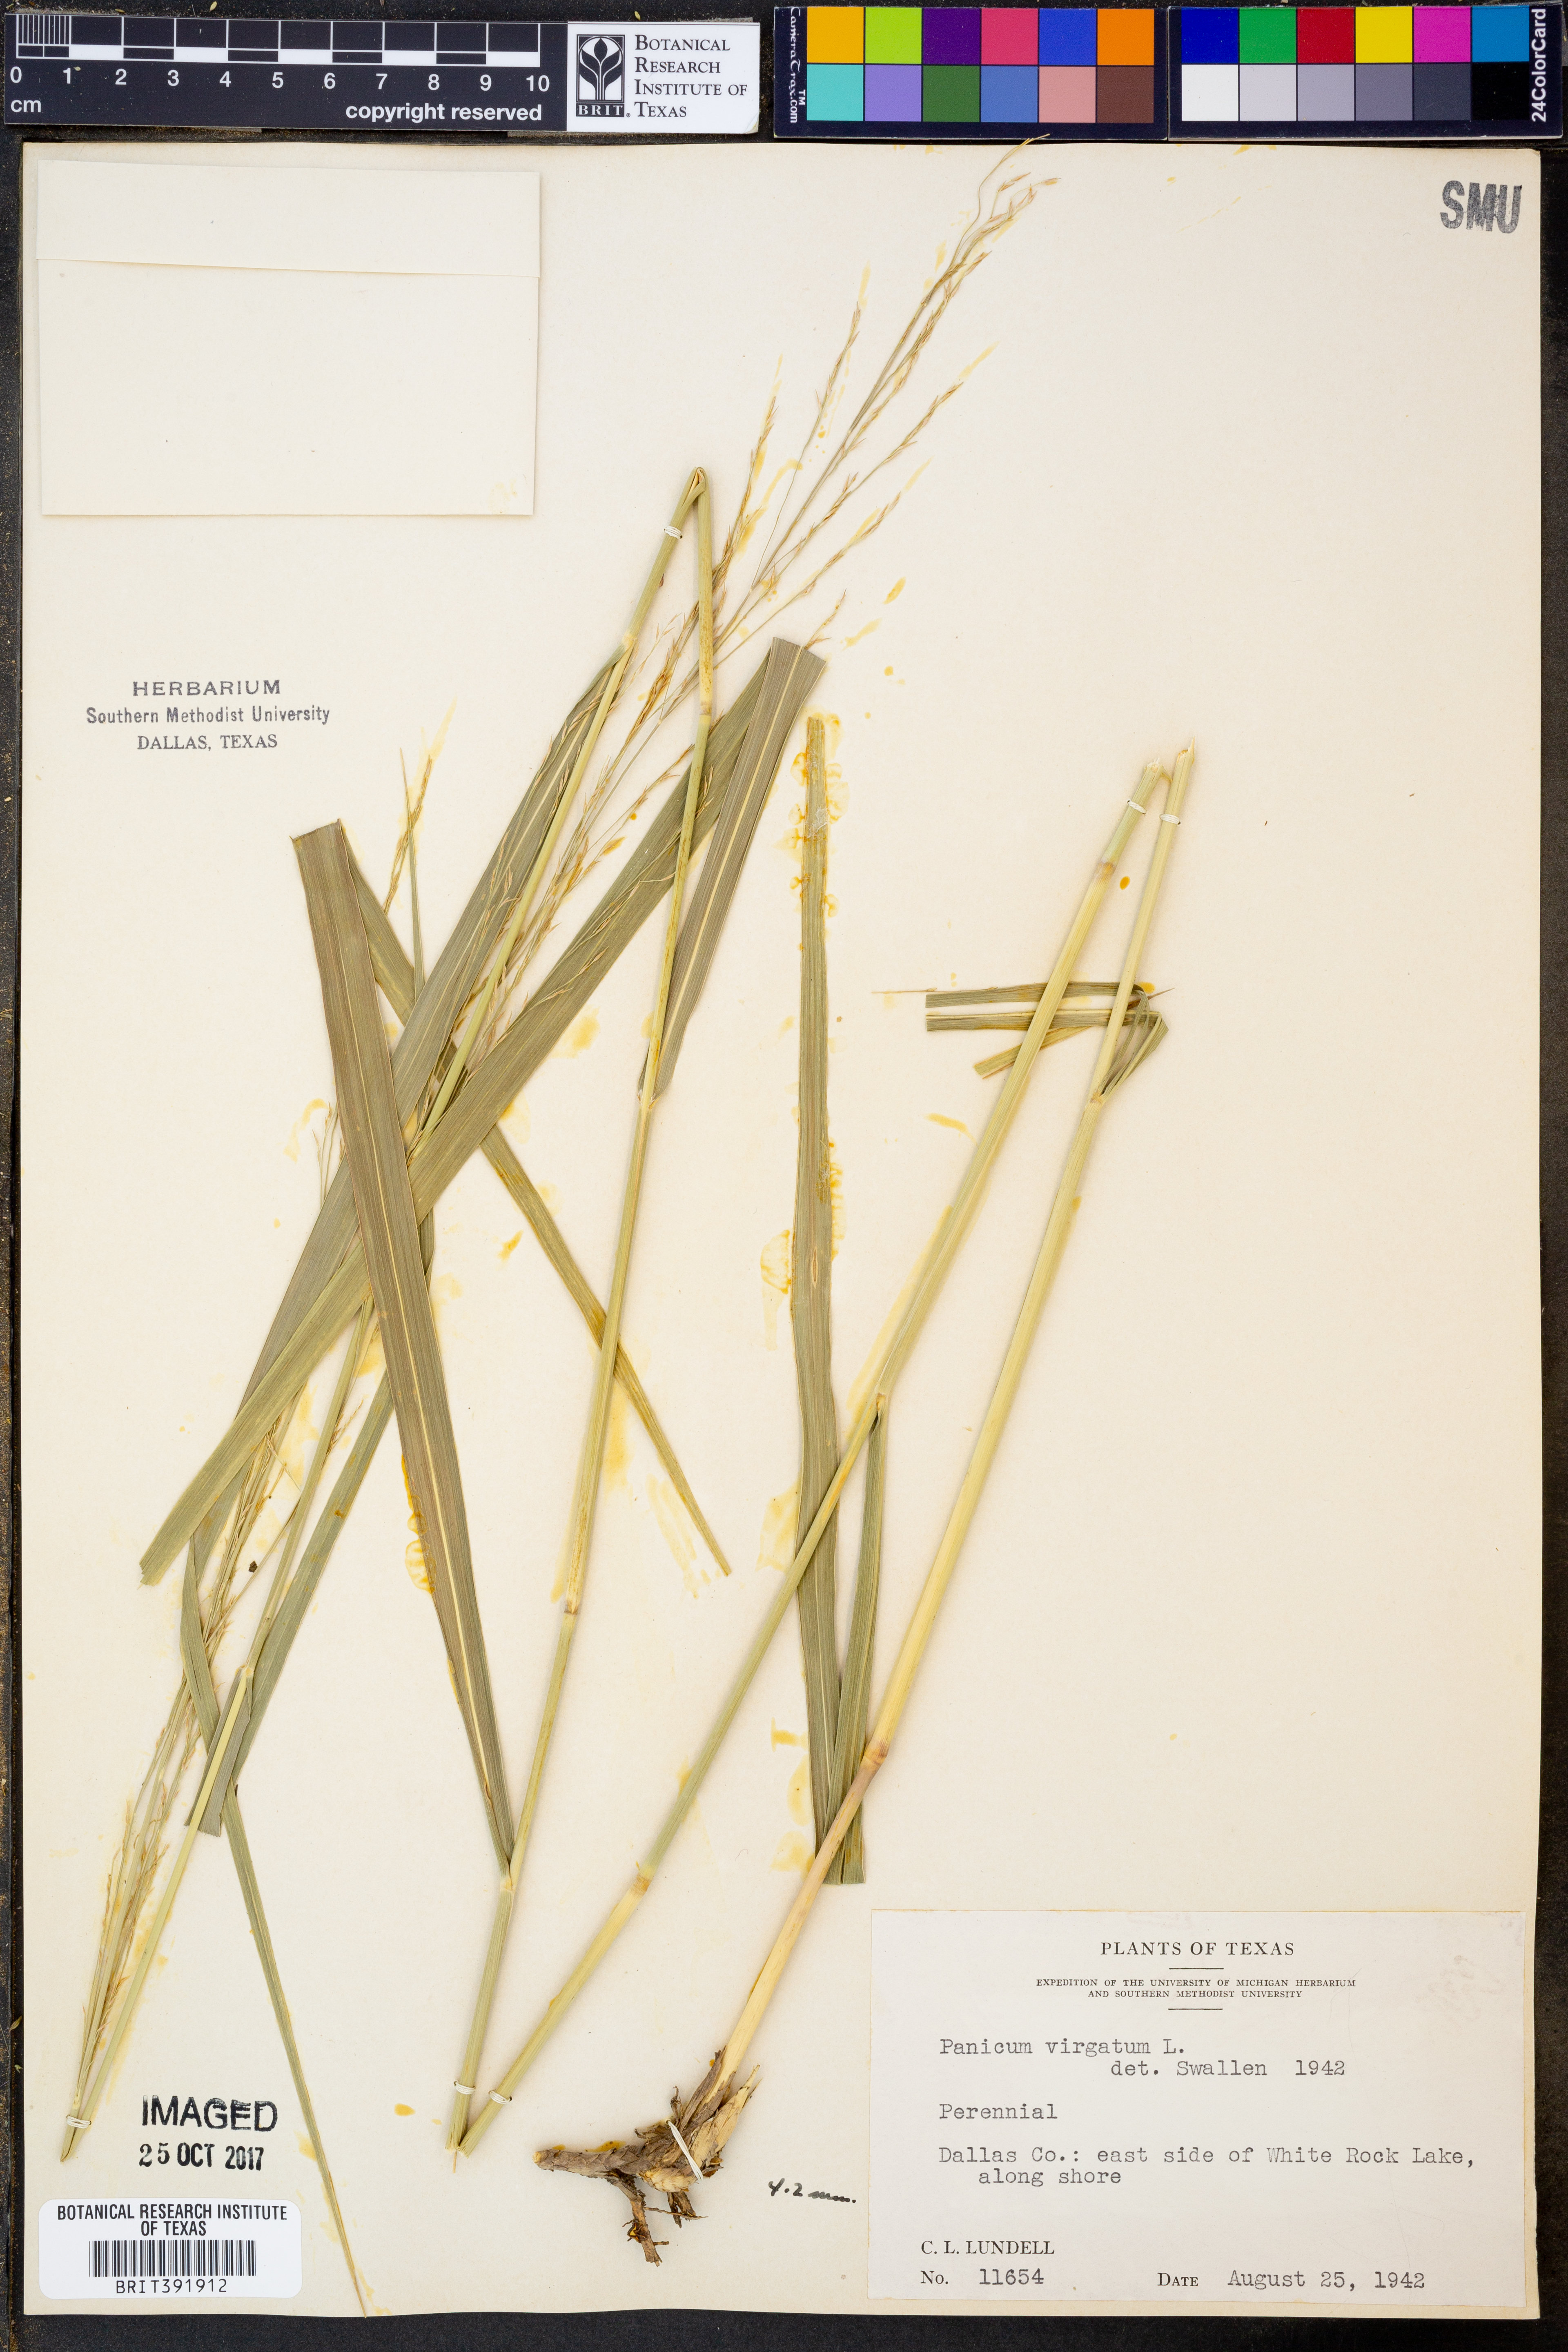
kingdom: Plantae
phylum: Tracheophyta
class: Liliopsida
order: Poales
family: Poaceae
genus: Panicum
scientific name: Panicum virgatum
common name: Switchgrass
